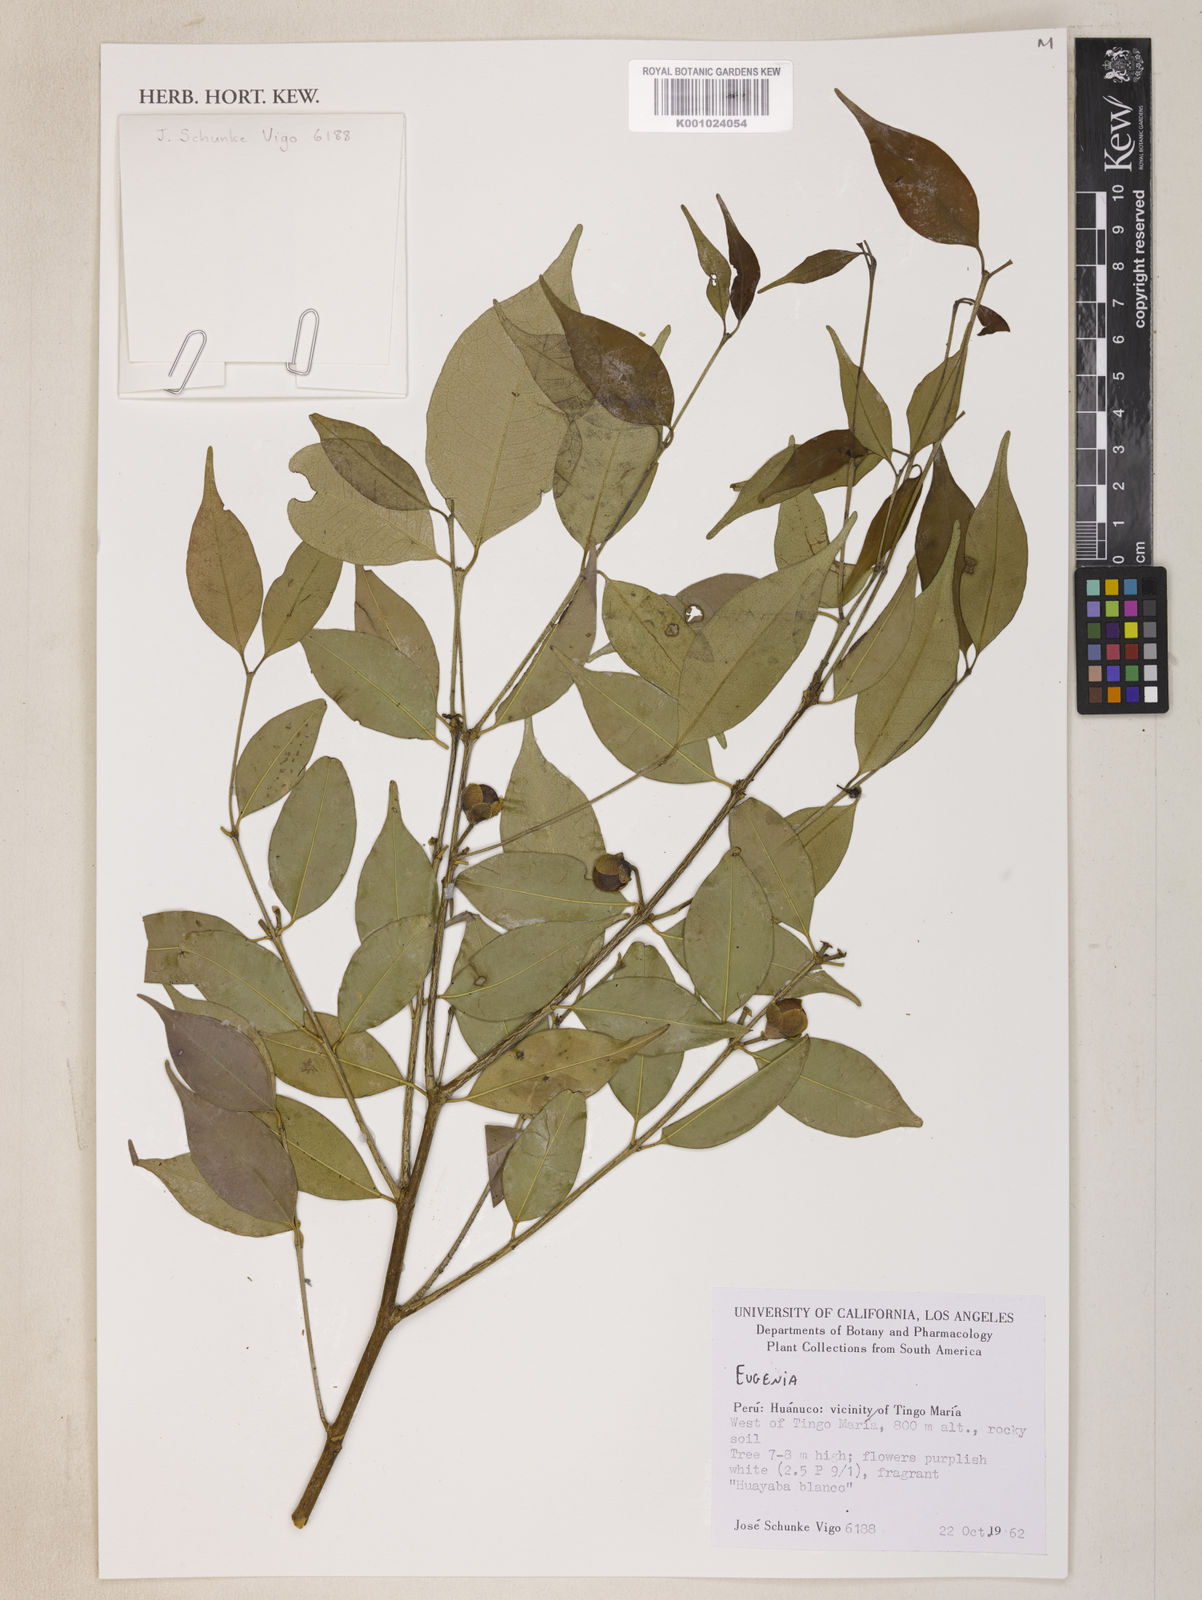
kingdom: Plantae
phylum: Tracheophyta
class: Magnoliopsida
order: Myrtales
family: Myrtaceae
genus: Eugenia
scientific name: Eugenia
